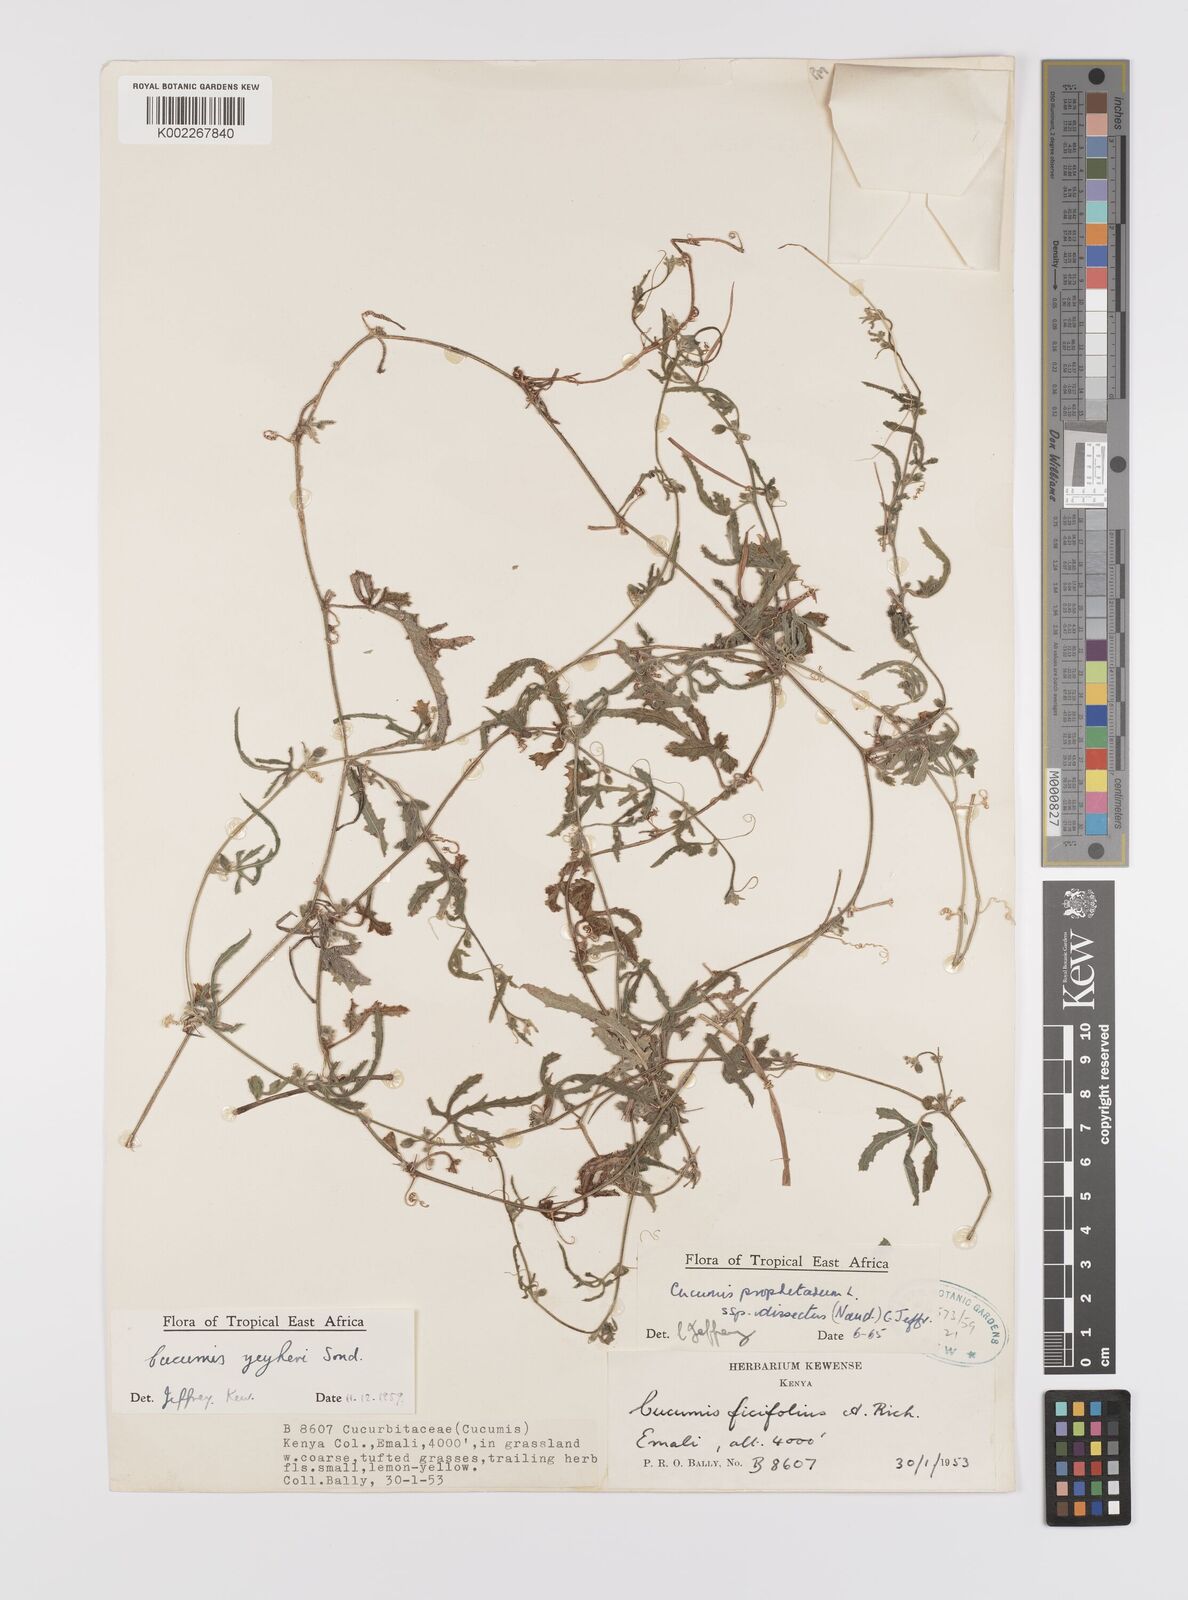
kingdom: Plantae
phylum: Tracheophyta
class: Magnoliopsida
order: Cucurbitales
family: Cucurbitaceae
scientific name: Cucurbitaceae
